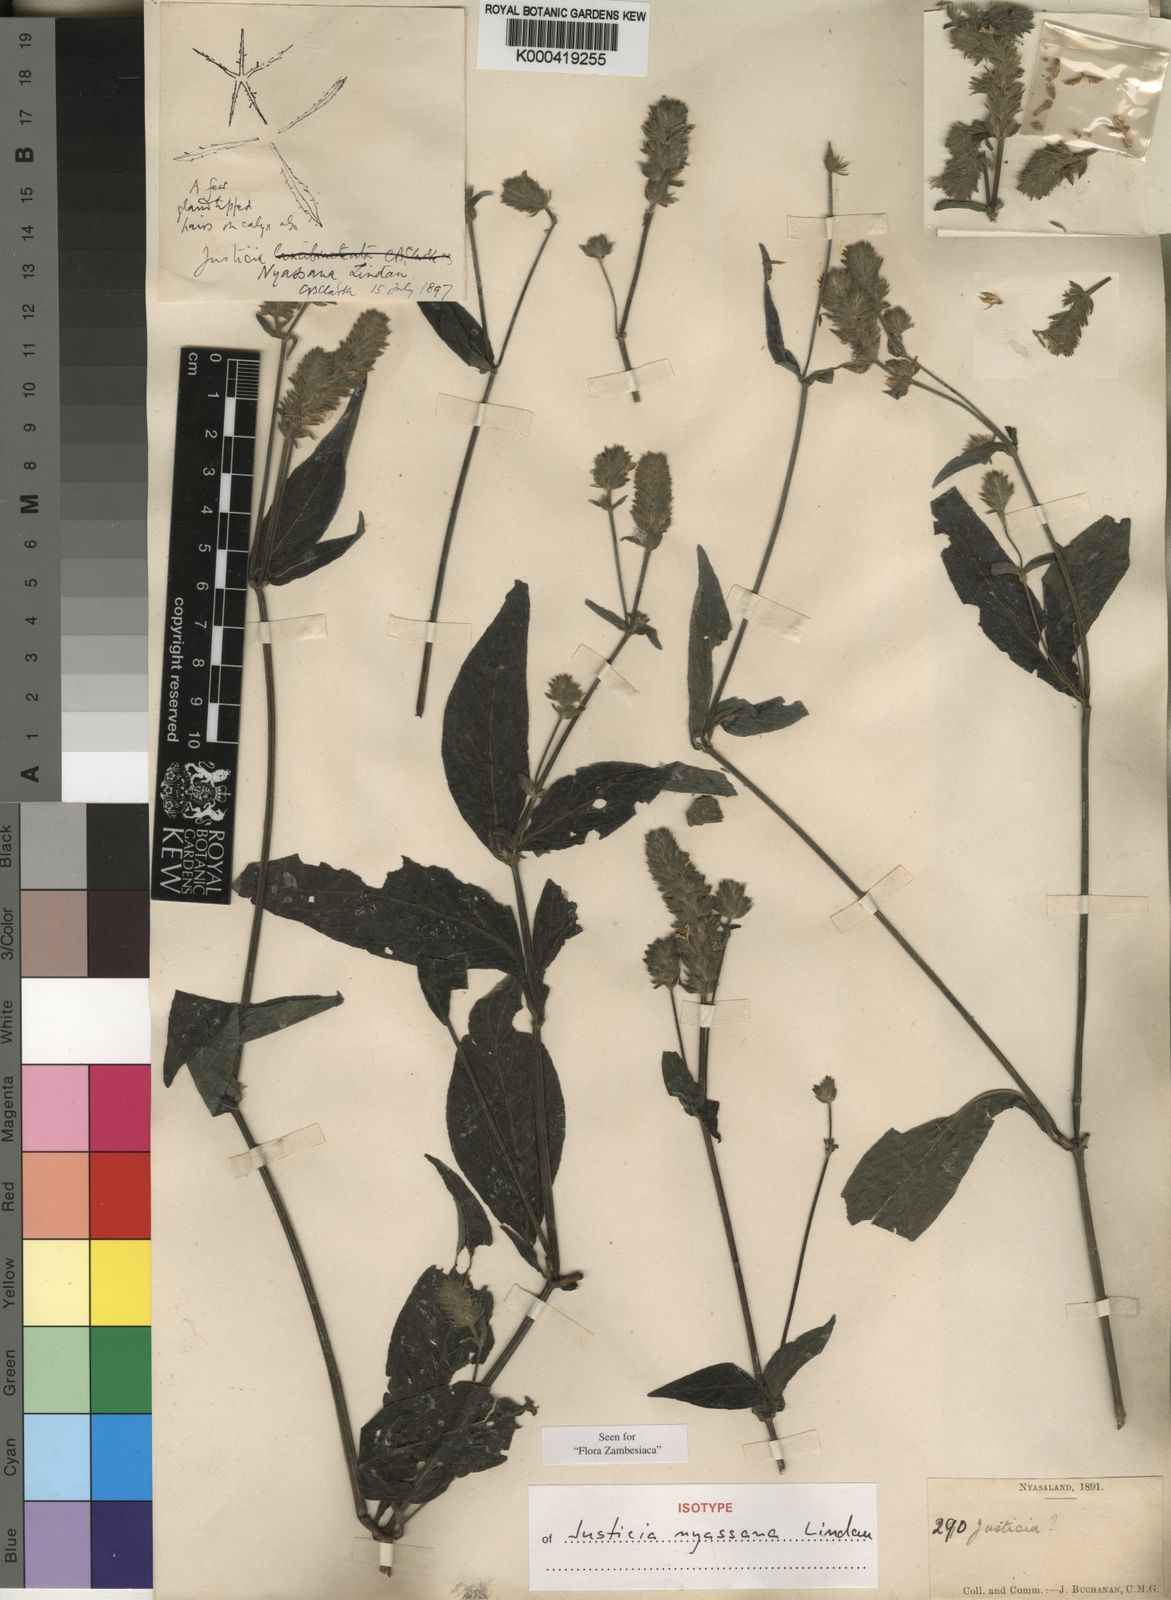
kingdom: Plantae
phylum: Tracheophyta
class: Magnoliopsida
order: Lamiales
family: Acanthaceae
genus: Isoglossa
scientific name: Isoglossa gregorii
